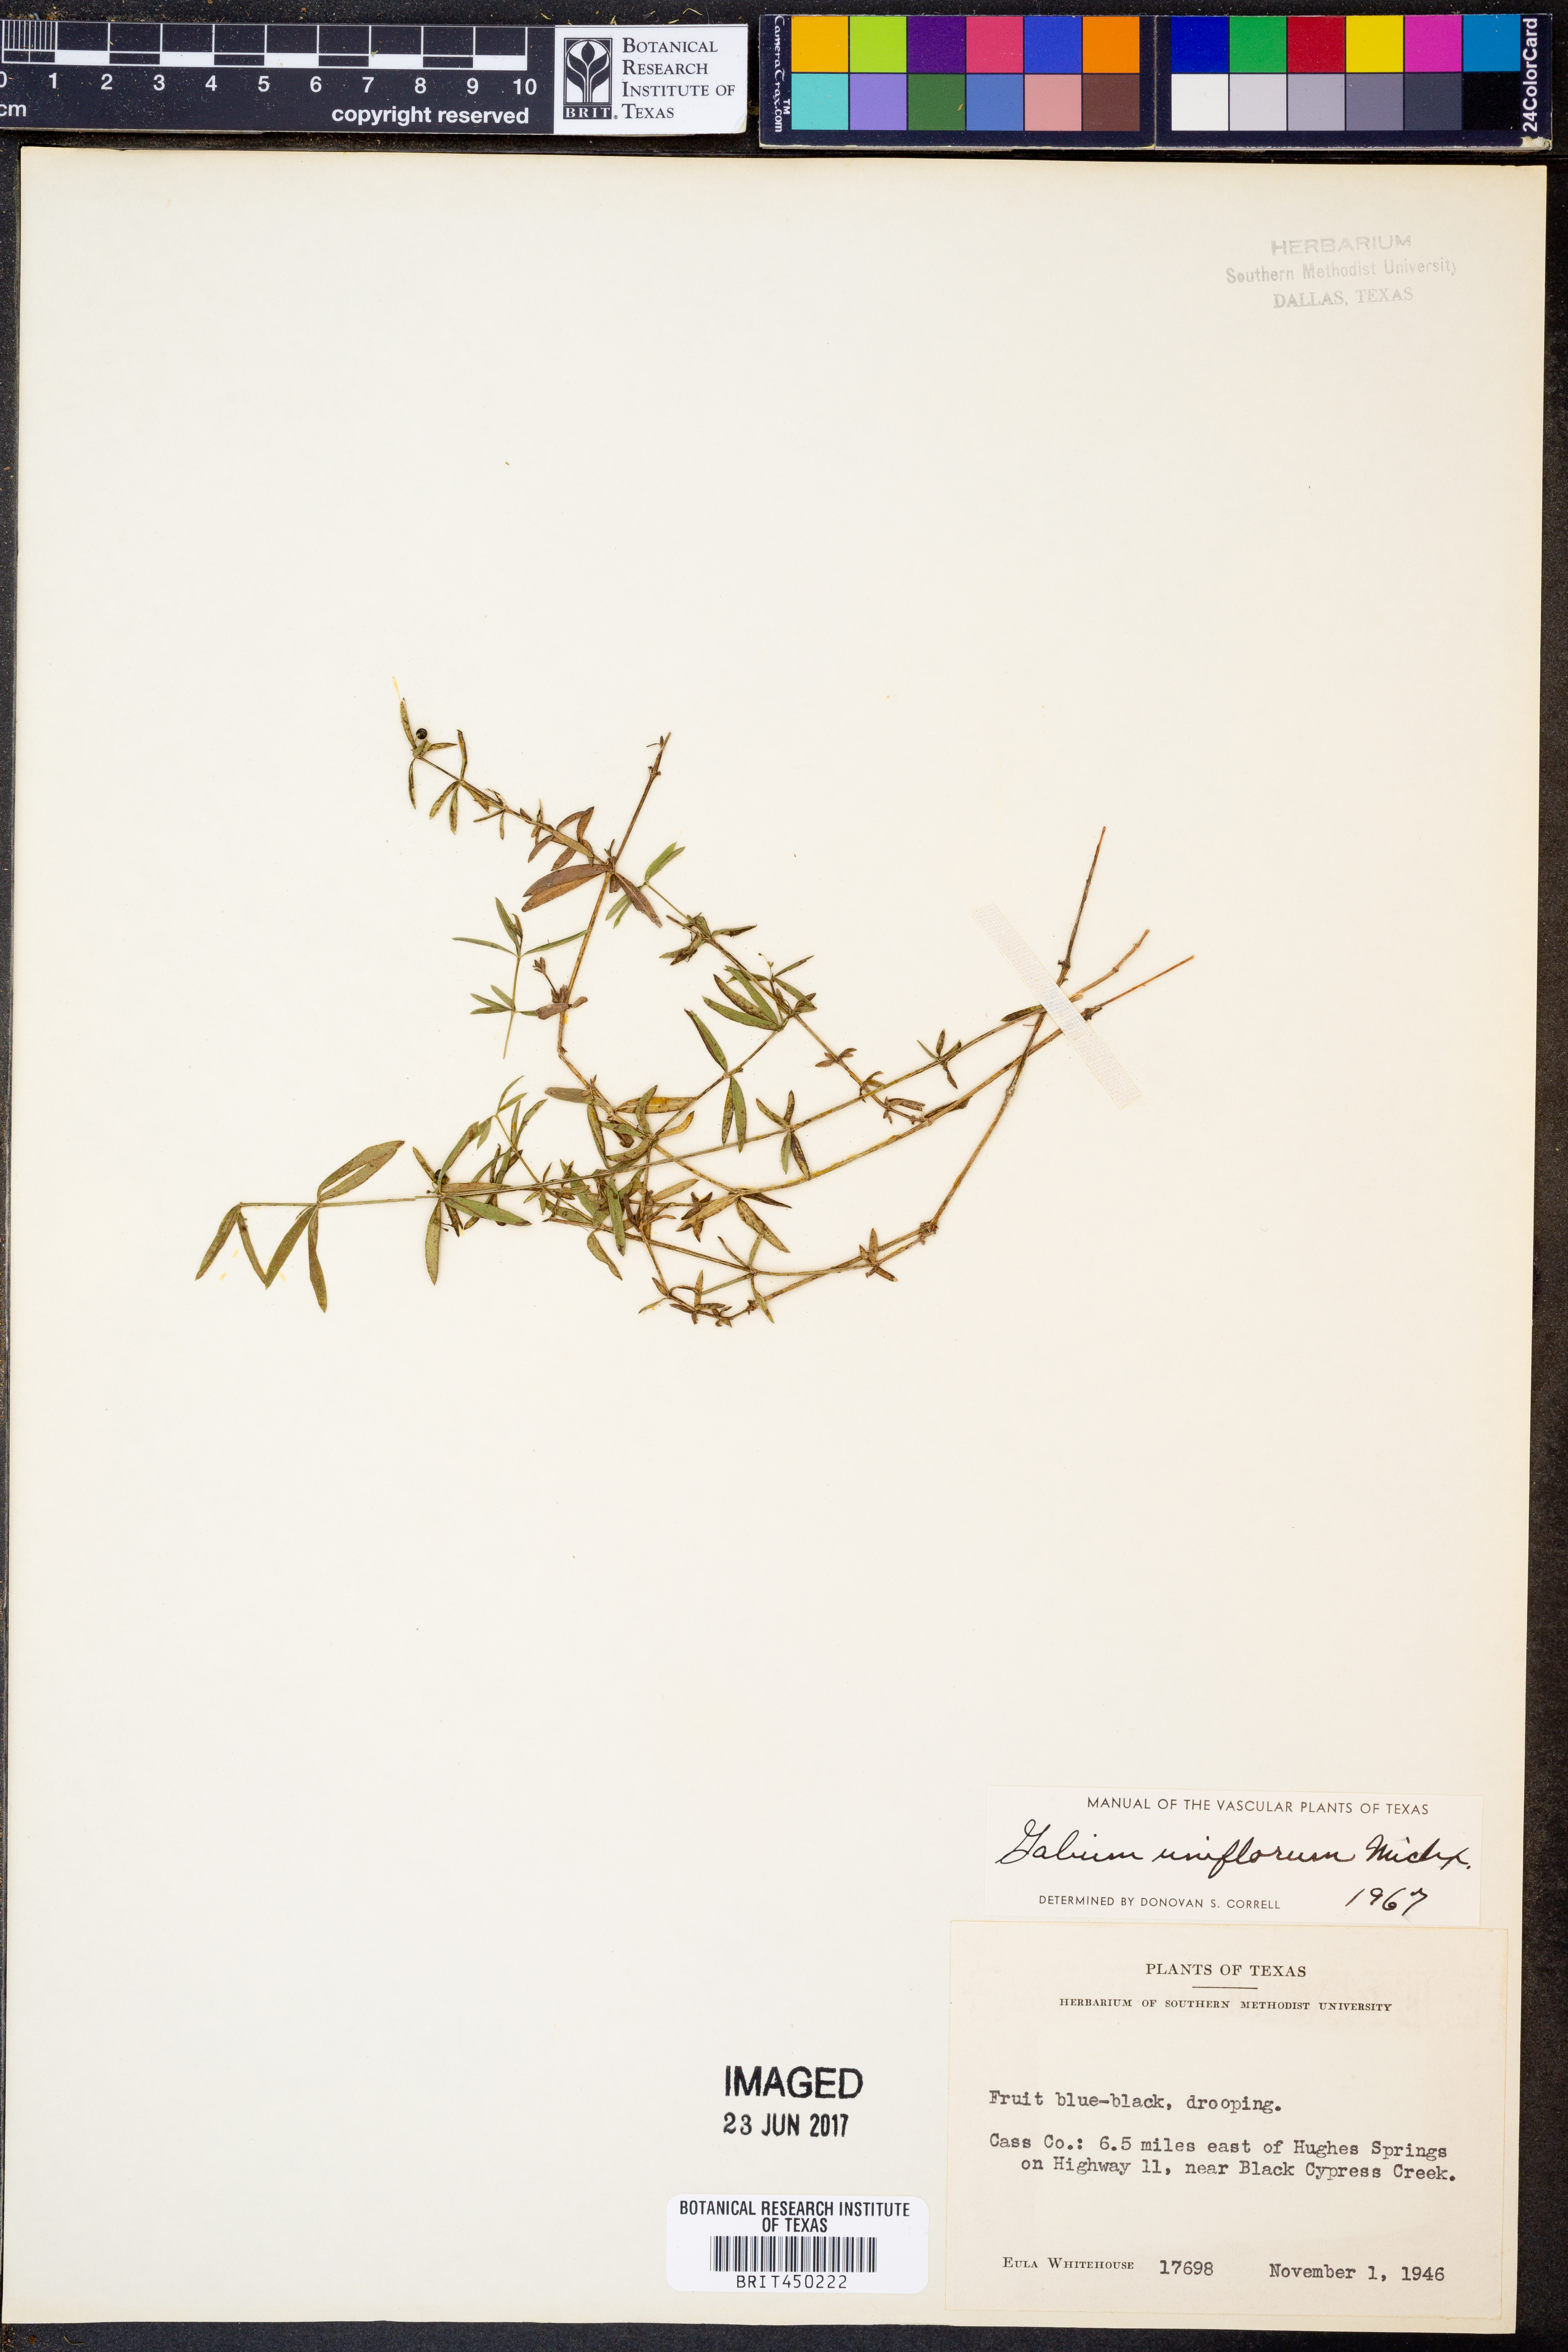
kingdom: Plantae
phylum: Tracheophyta
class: Magnoliopsida
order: Gentianales
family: Rubiaceae
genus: Galium
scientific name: Galium uniflorum
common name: One-flower bedstraw
